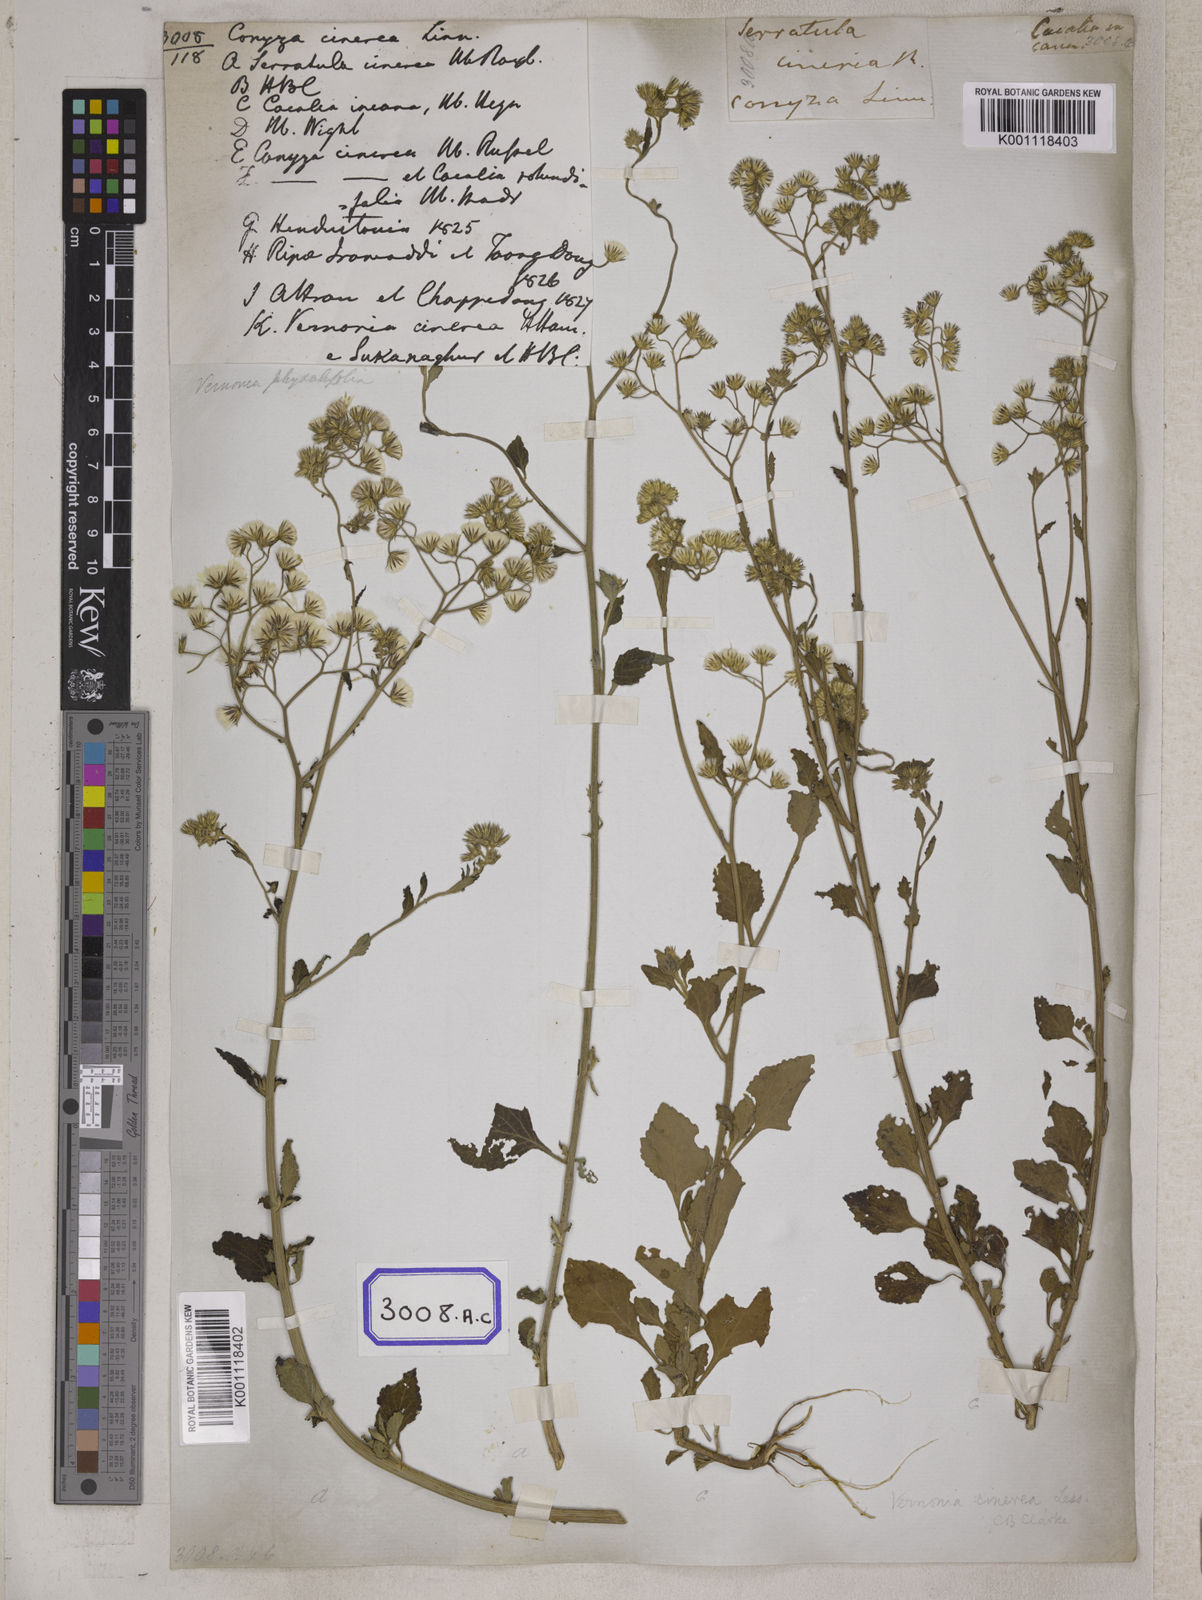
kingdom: Plantae
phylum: Tracheophyta
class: Magnoliopsida
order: Asterales
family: Asteraceae
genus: Cyanthillium
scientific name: Cyanthillium cinereum
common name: Little ironweed
